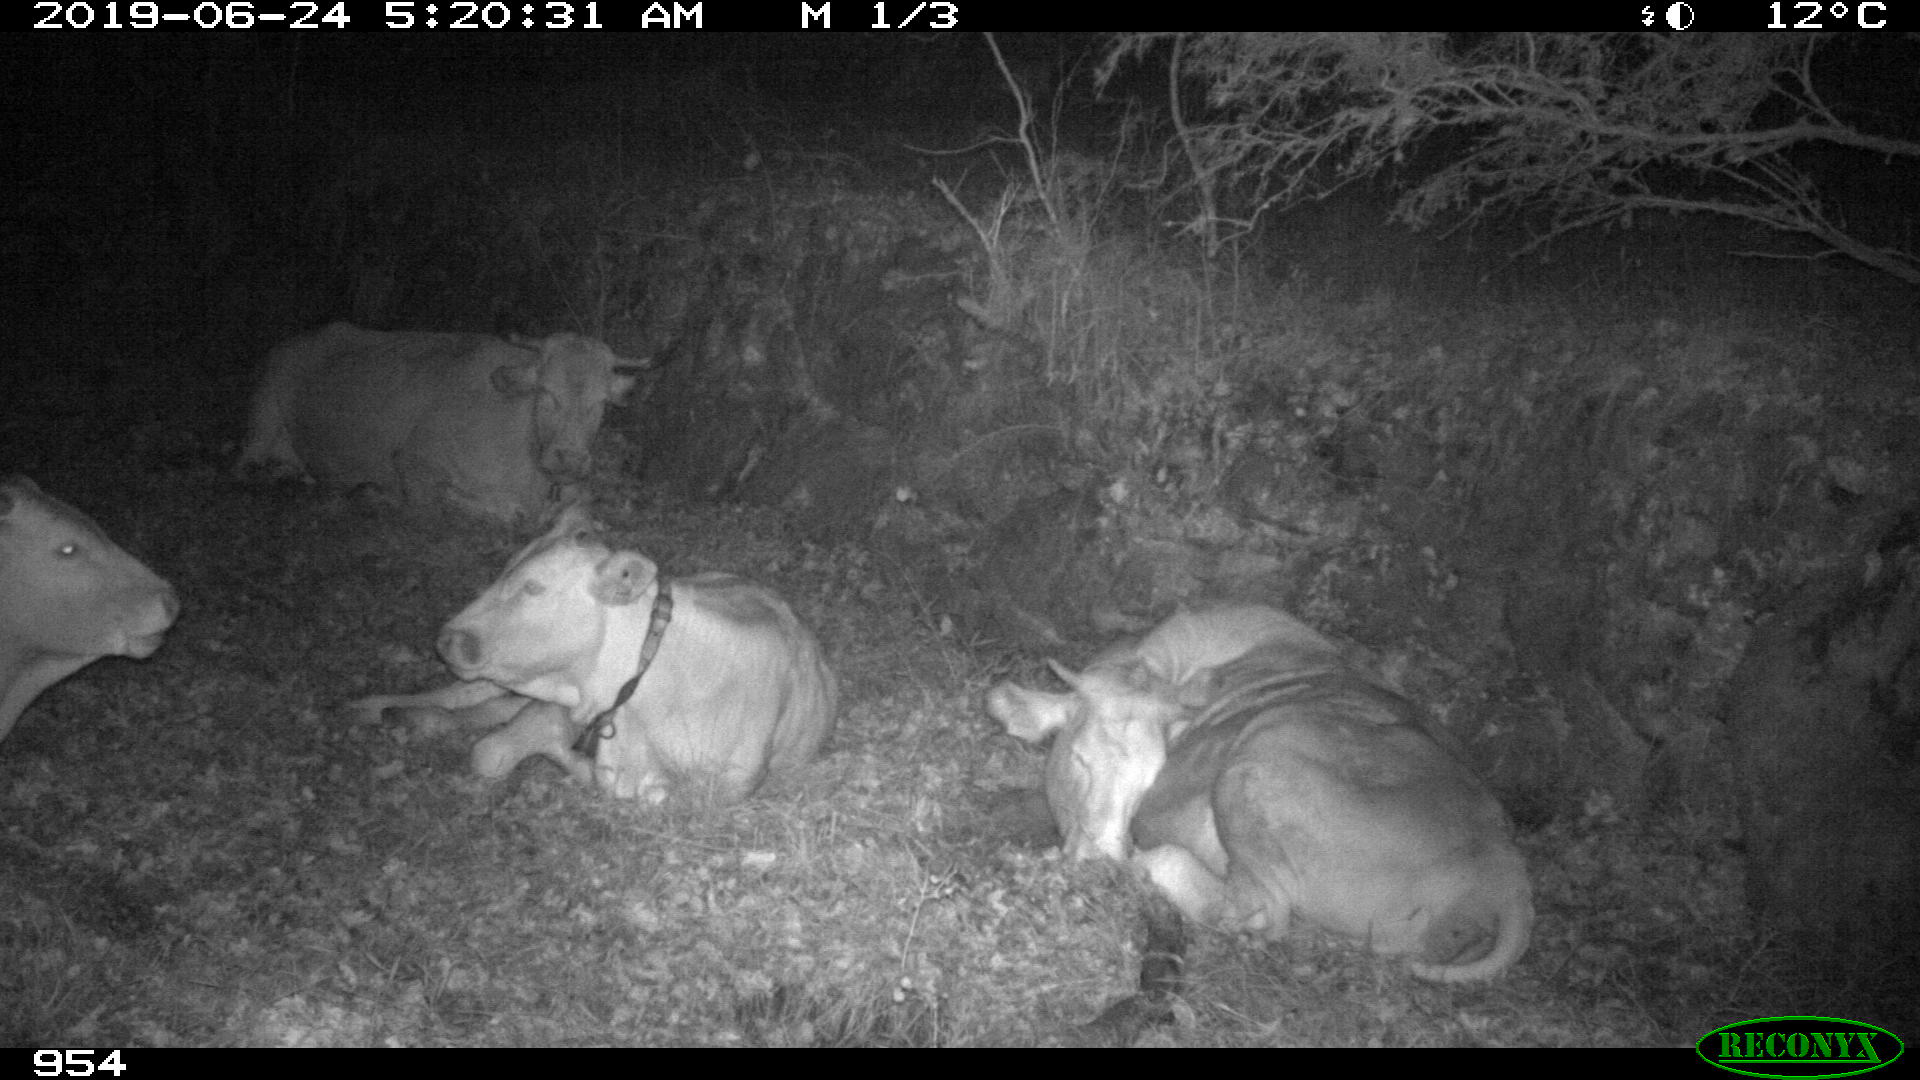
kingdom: Animalia
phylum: Chordata
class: Mammalia
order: Artiodactyla
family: Bovidae
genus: Bos
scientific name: Bos taurus
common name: Domesticated cattle
